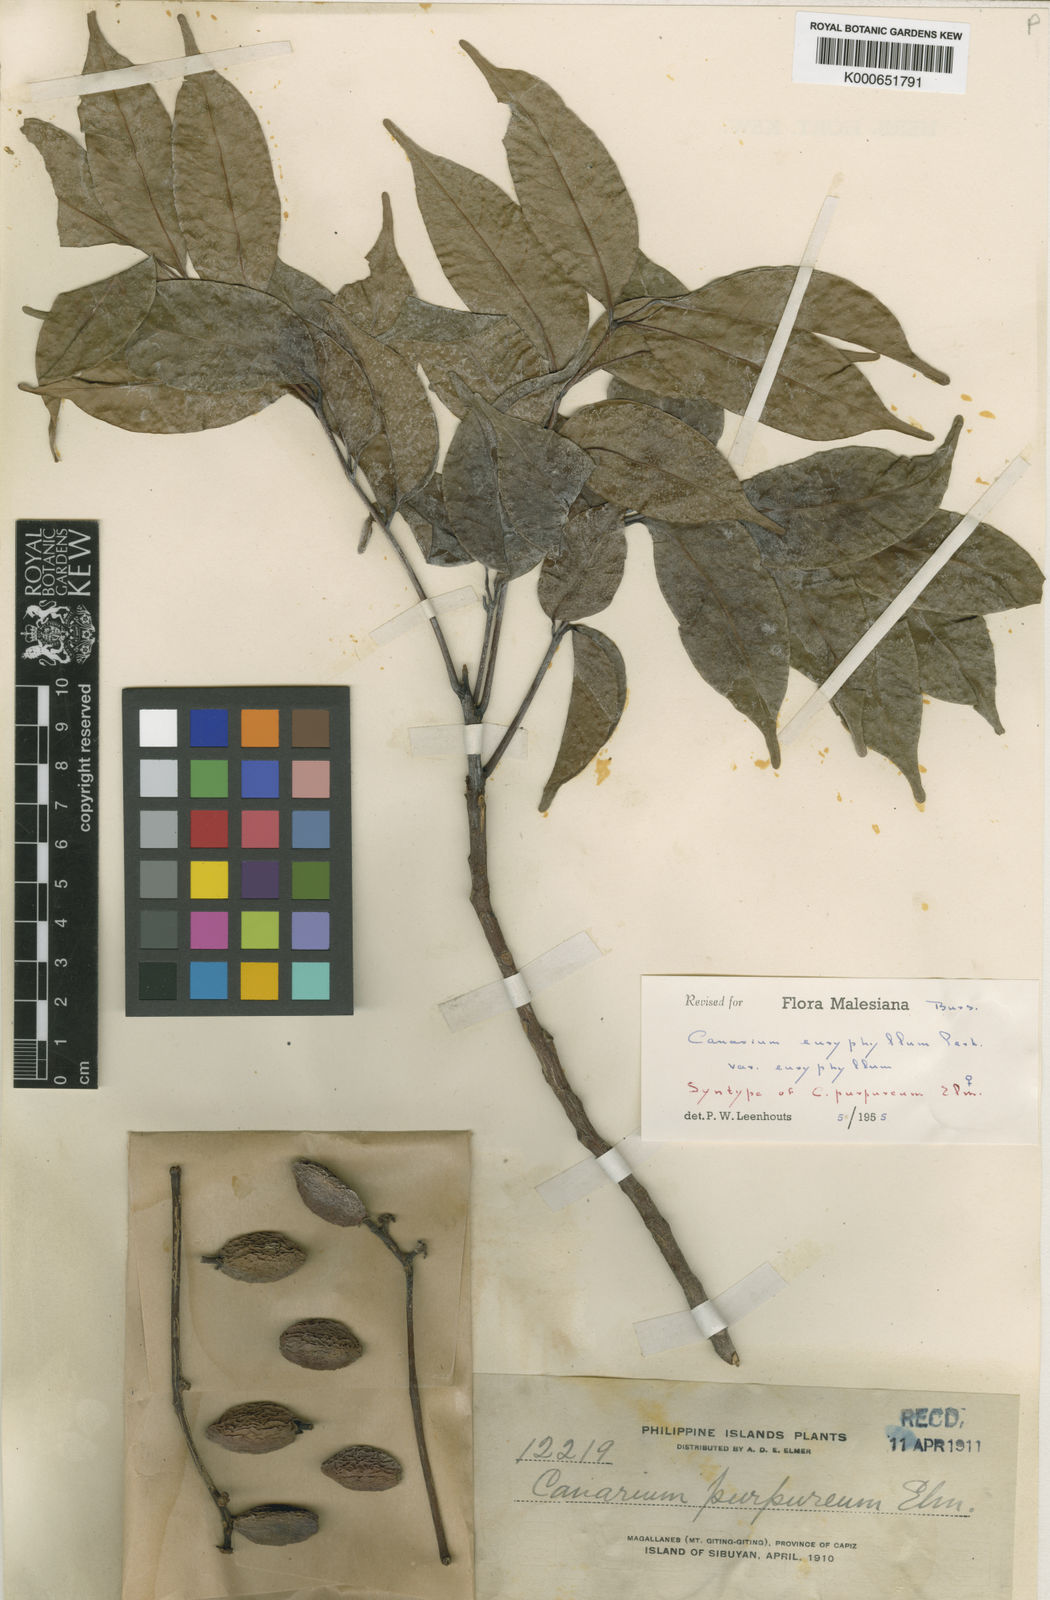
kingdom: Plantae
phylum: Tracheophyta
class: Magnoliopsida
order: Sapindales
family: Burseraceae
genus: Canarium
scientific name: Canarium euryphyllum
